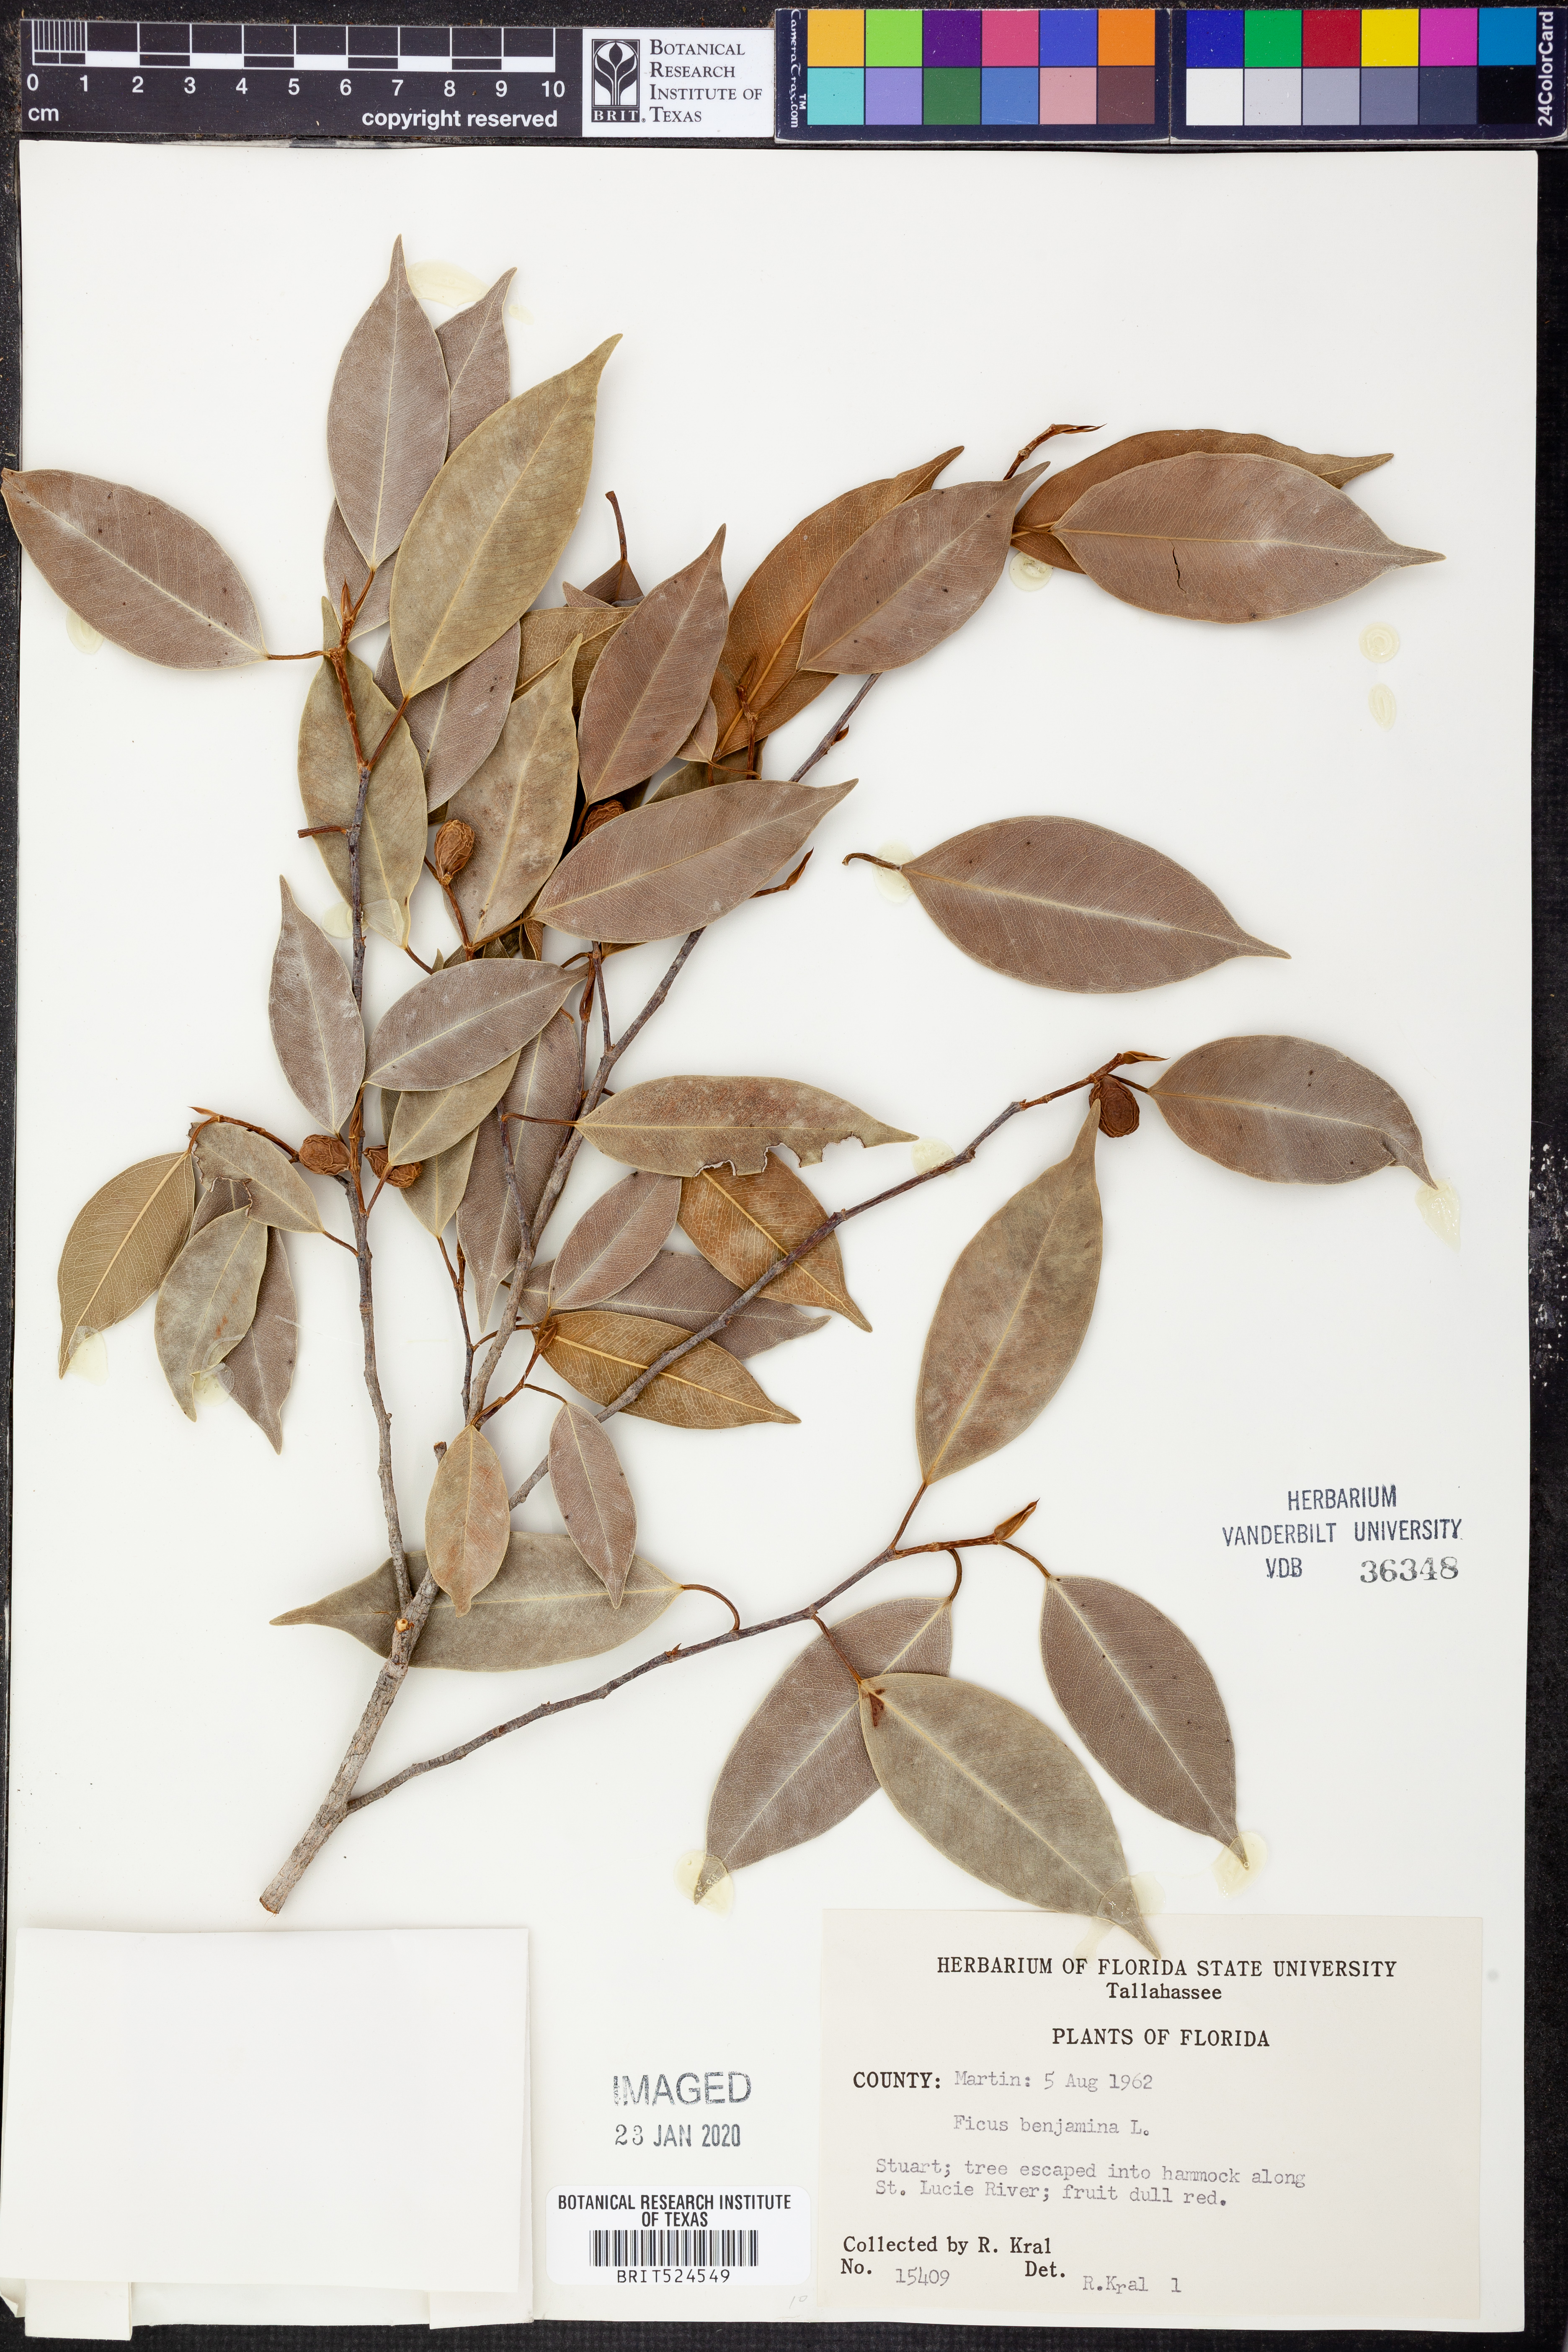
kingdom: Plantae
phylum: Tracheophyta
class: Magnoliopsida
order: Rosales
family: Moraceae
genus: Ficus
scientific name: Ficus benjamina
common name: Weeping fig
